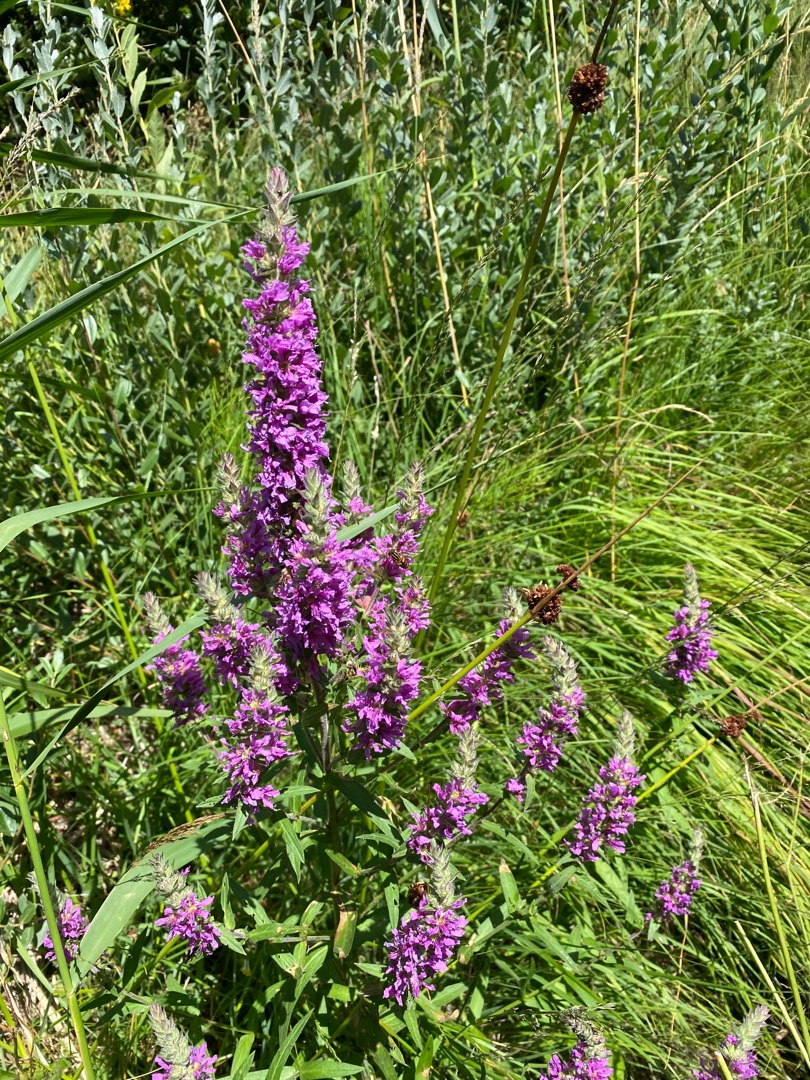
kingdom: Plantae
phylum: Tracheophyta
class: Magnoliopsida
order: Myrtales
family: Lythraceae
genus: Lythrum
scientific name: Lythrum salicaria
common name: Kattehale
